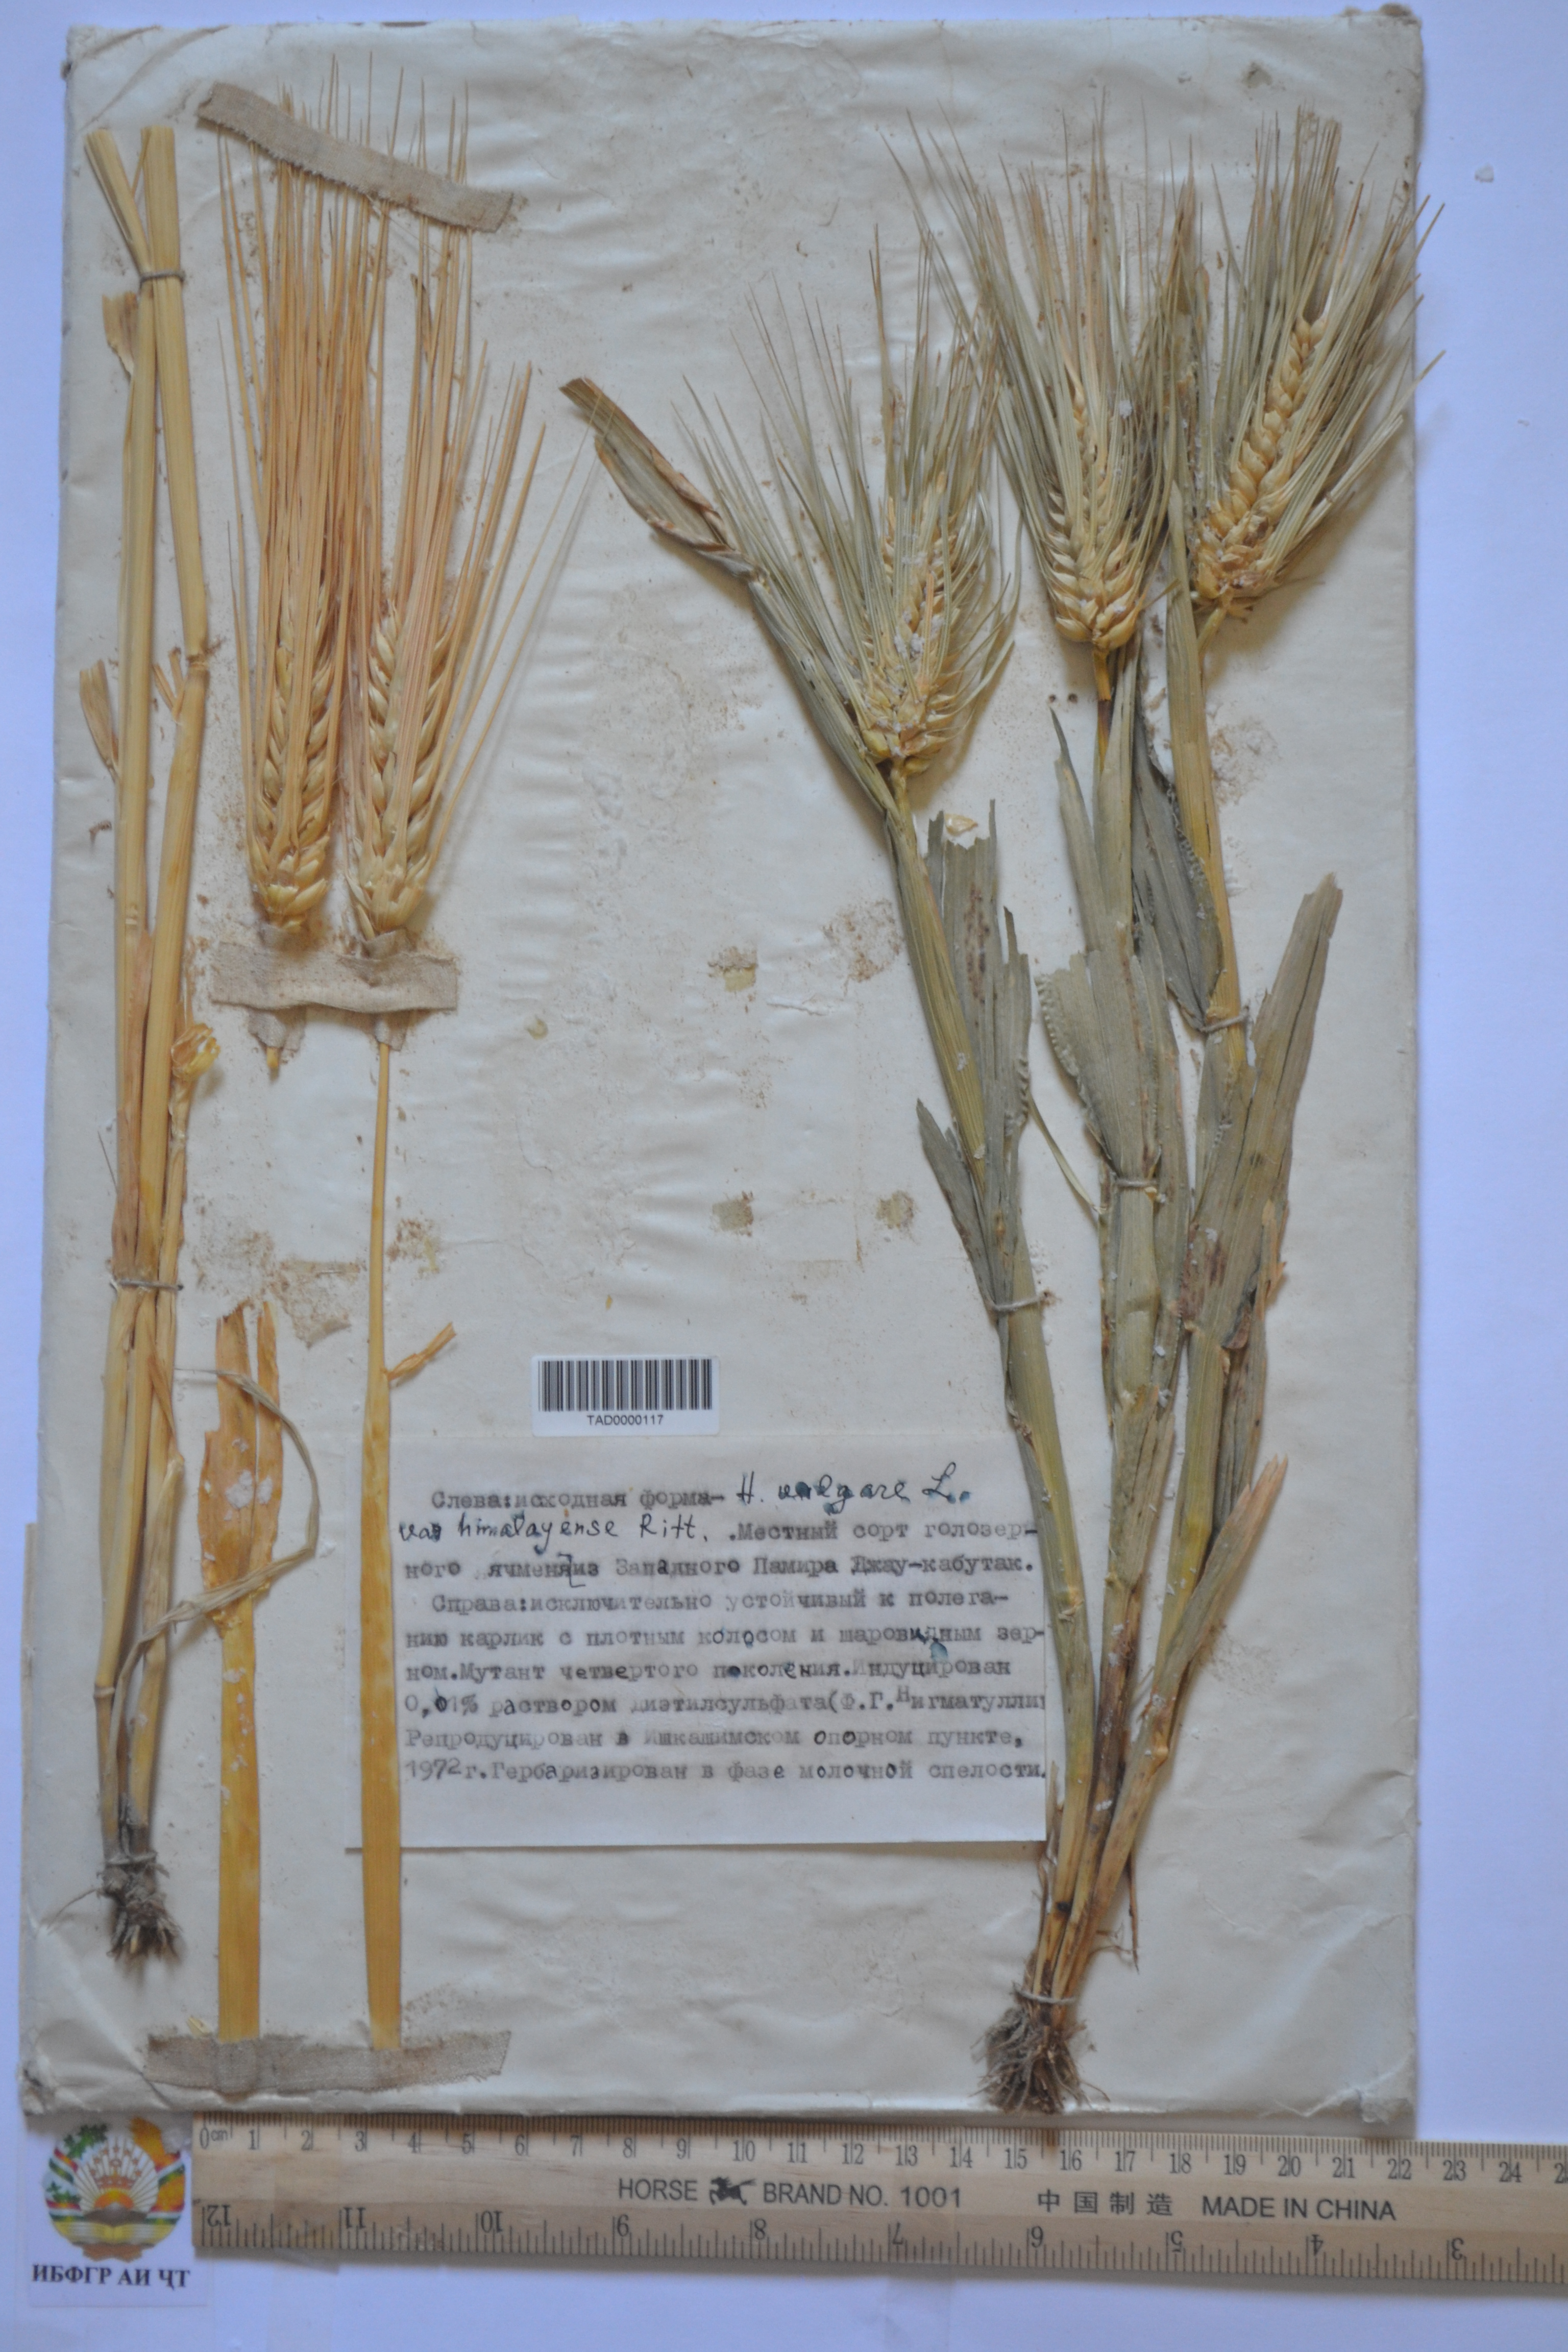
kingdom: Plantae
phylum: Tracheophyta
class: Liliopsida
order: Poales
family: Poaceae
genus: Hordeum
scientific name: Hordeum vulgare
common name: Common barley
